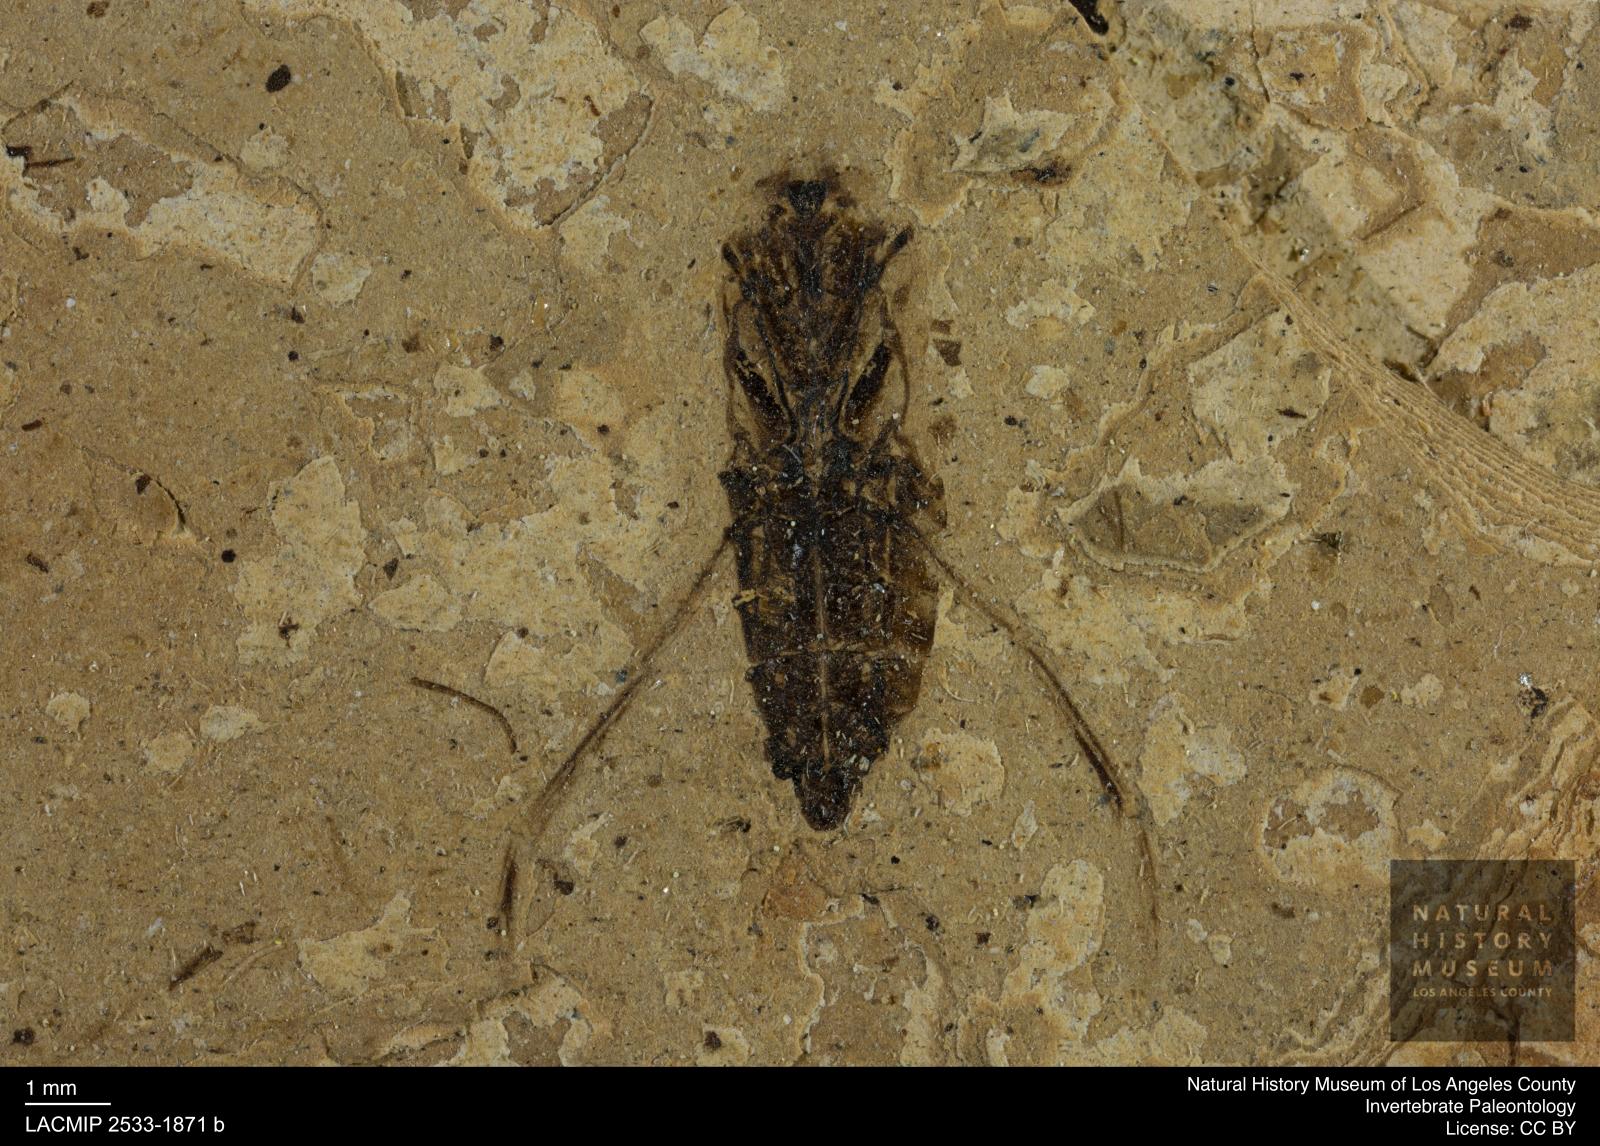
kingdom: Animalia
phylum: Arthropoda
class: Insecta
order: Hemiptera
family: Notonectidae
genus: Anisops
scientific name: Anisops Notonecta deichmuelleri
